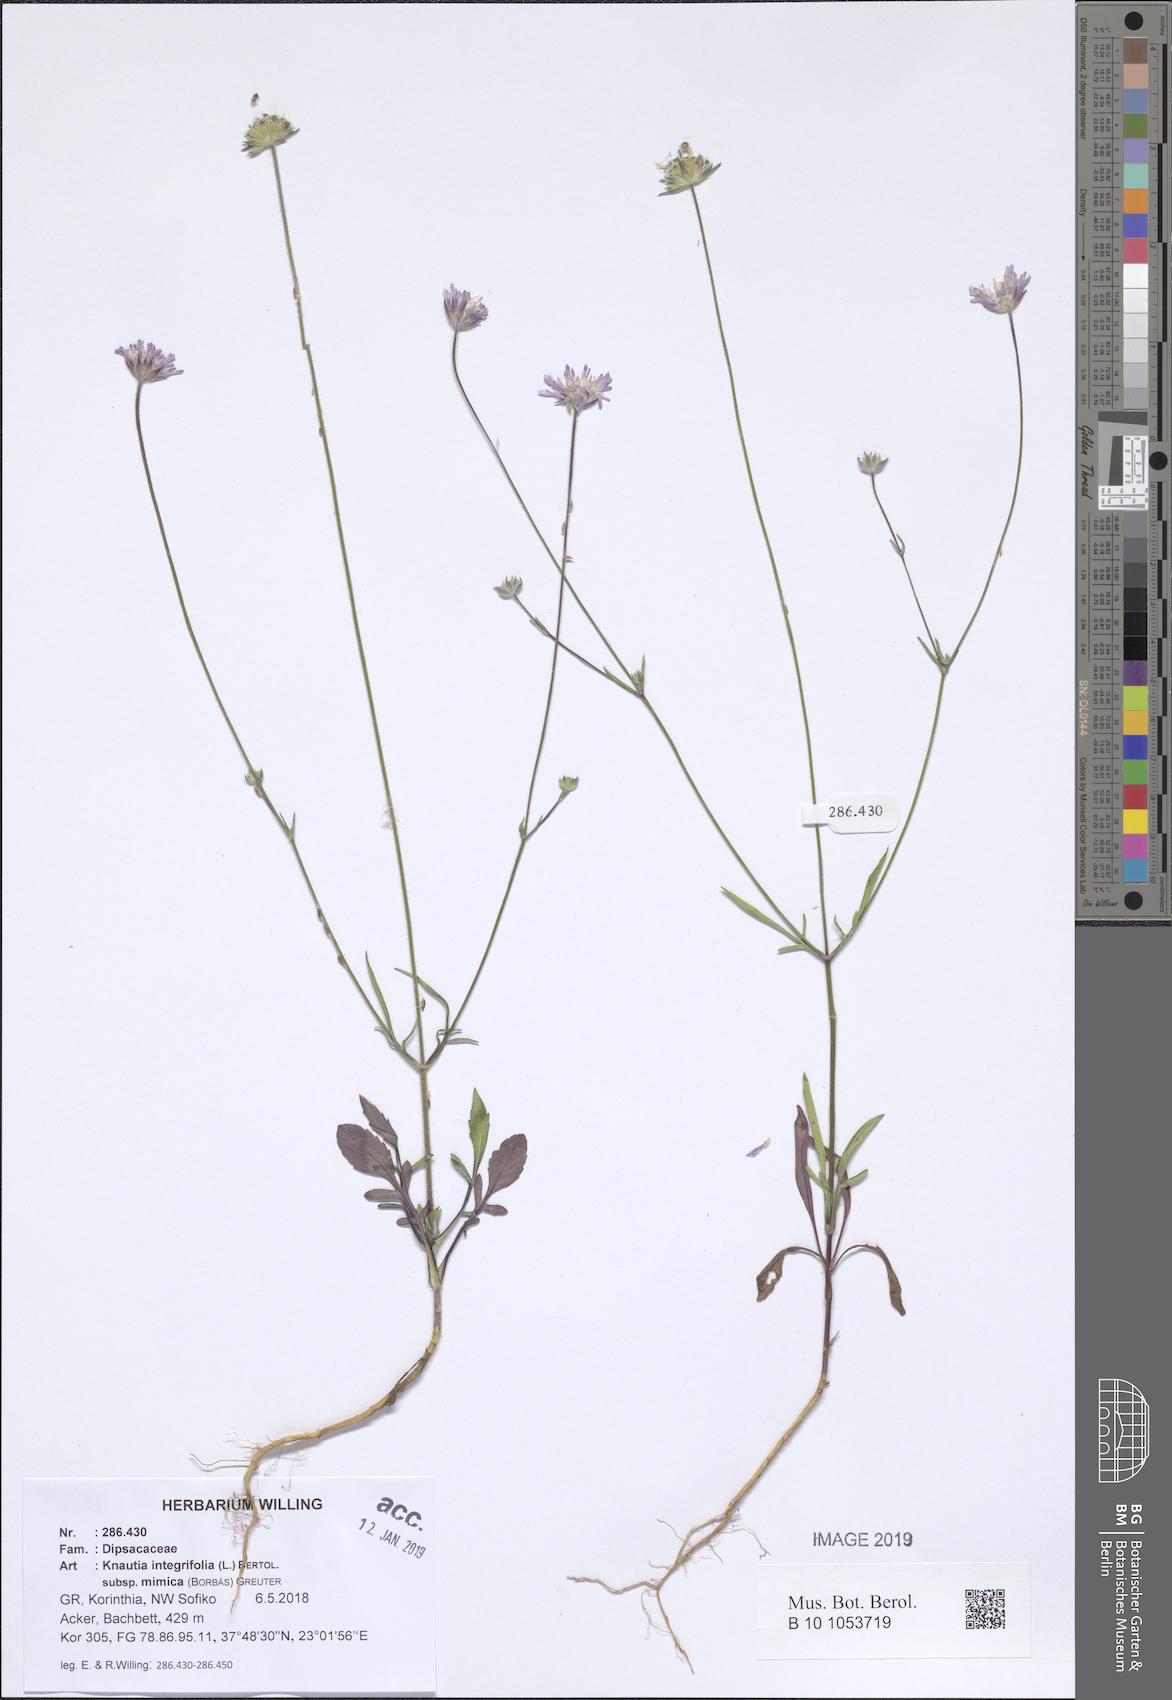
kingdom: Plantae
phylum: Tracheophyta
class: Magnoliopsida
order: Dipsacales
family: Caprifoliaceae
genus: Knautia
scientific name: Knautia integrifolia
